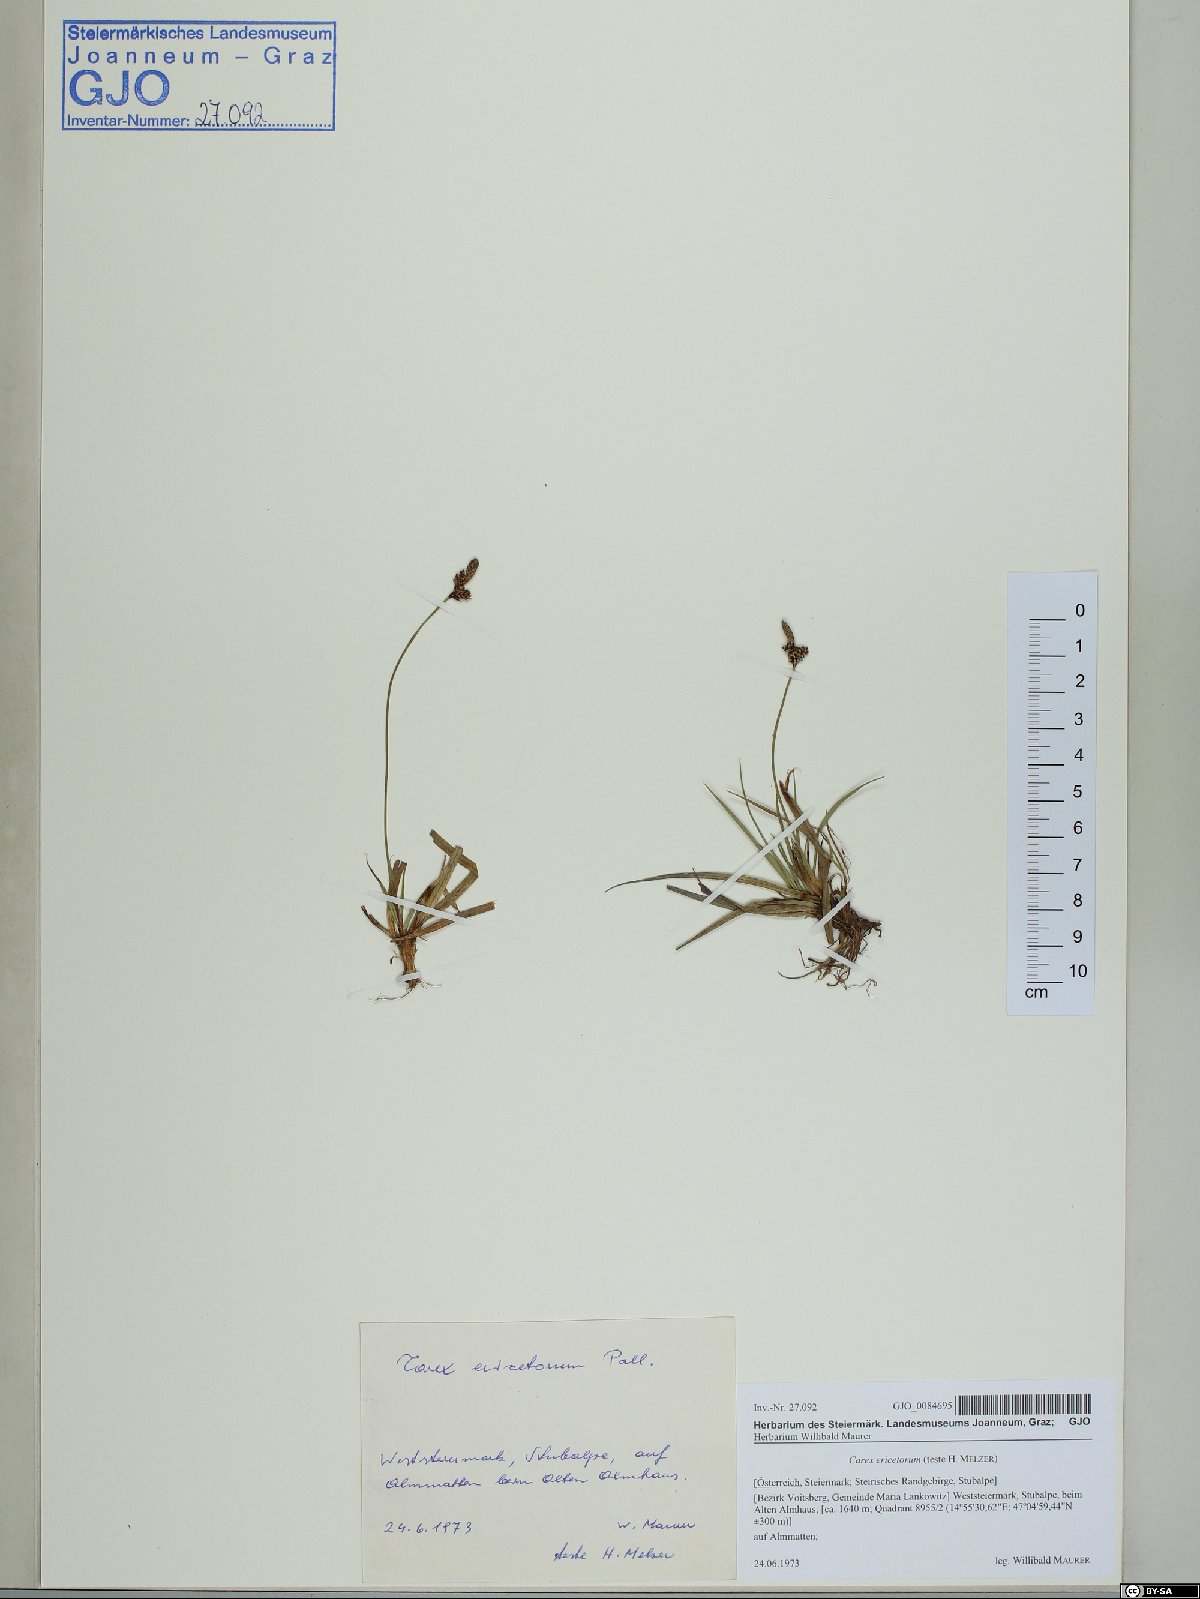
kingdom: Plantae
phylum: Tracheophyta
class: Liliopsida
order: Poales
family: Cyperaceae
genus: Carex
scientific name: Carex ericetorum
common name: Rare spring-sedge
